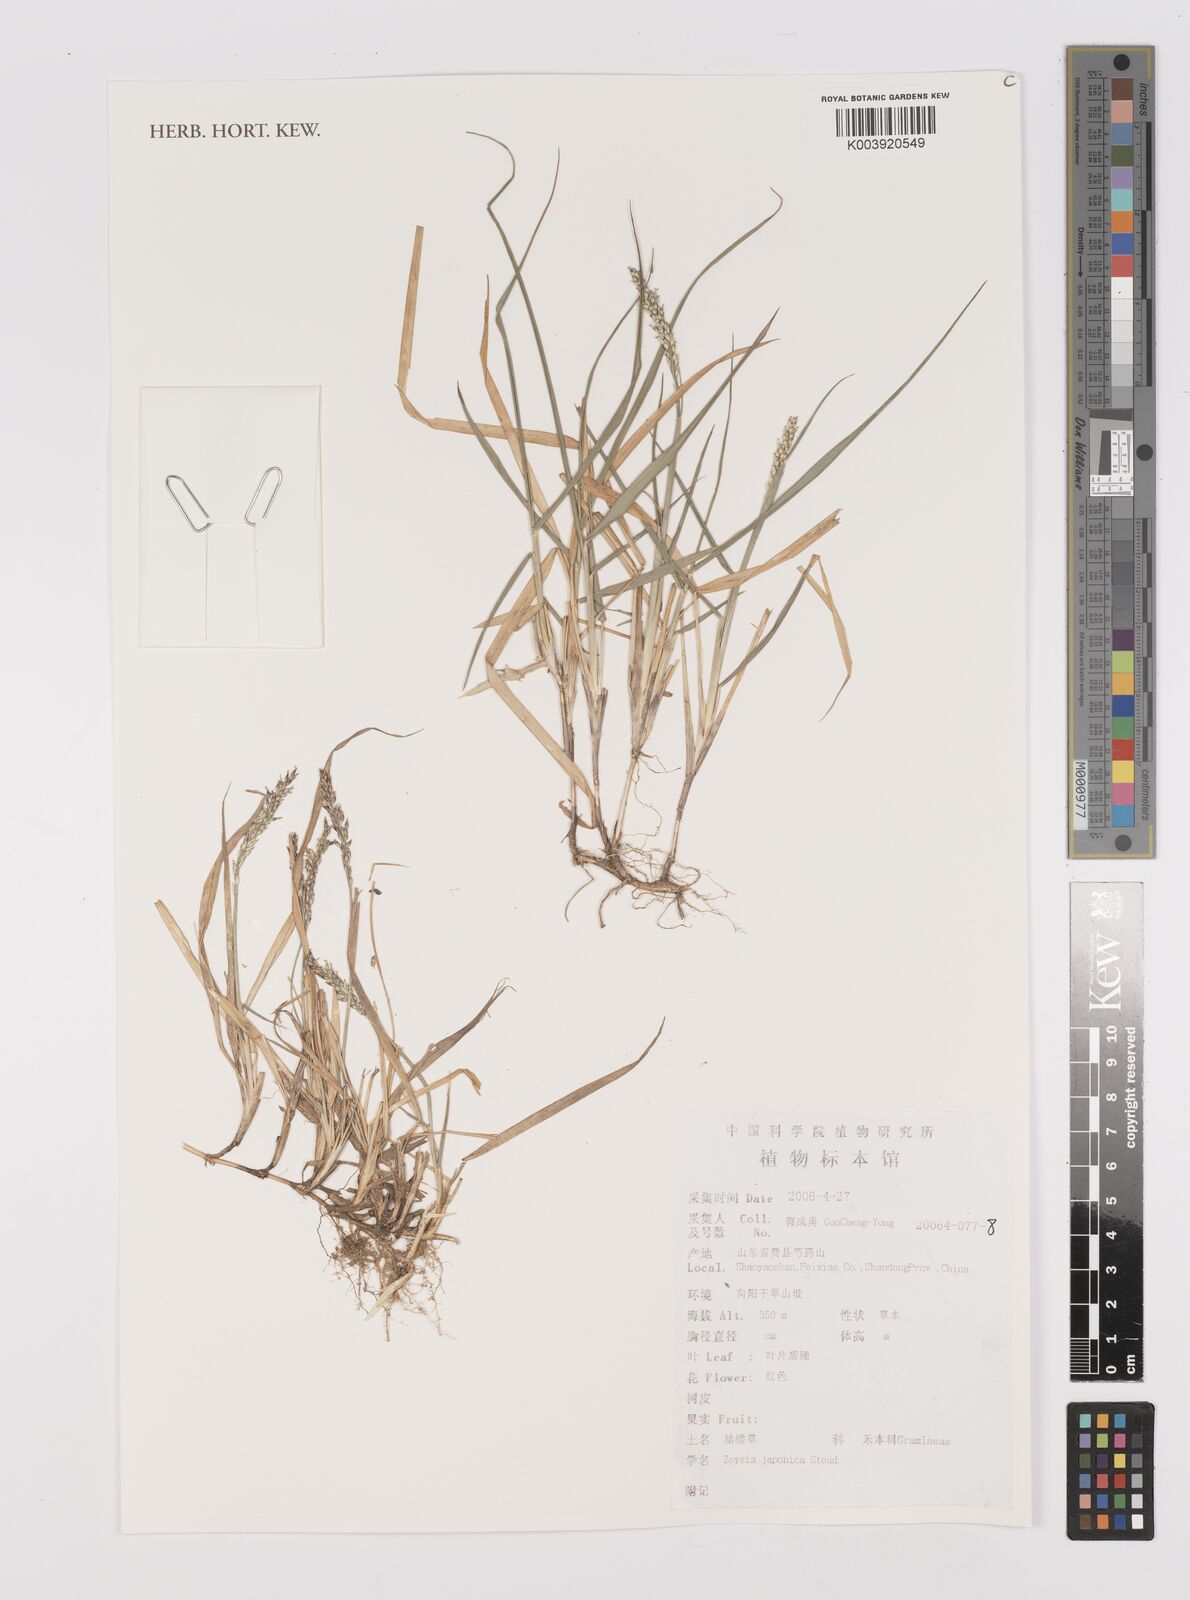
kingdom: Plantae
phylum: Tracheophyta
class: Liliopsida
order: Poales
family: Poaceae
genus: Zoysia
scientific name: Zoysia japonica
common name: Korean lawngrass
